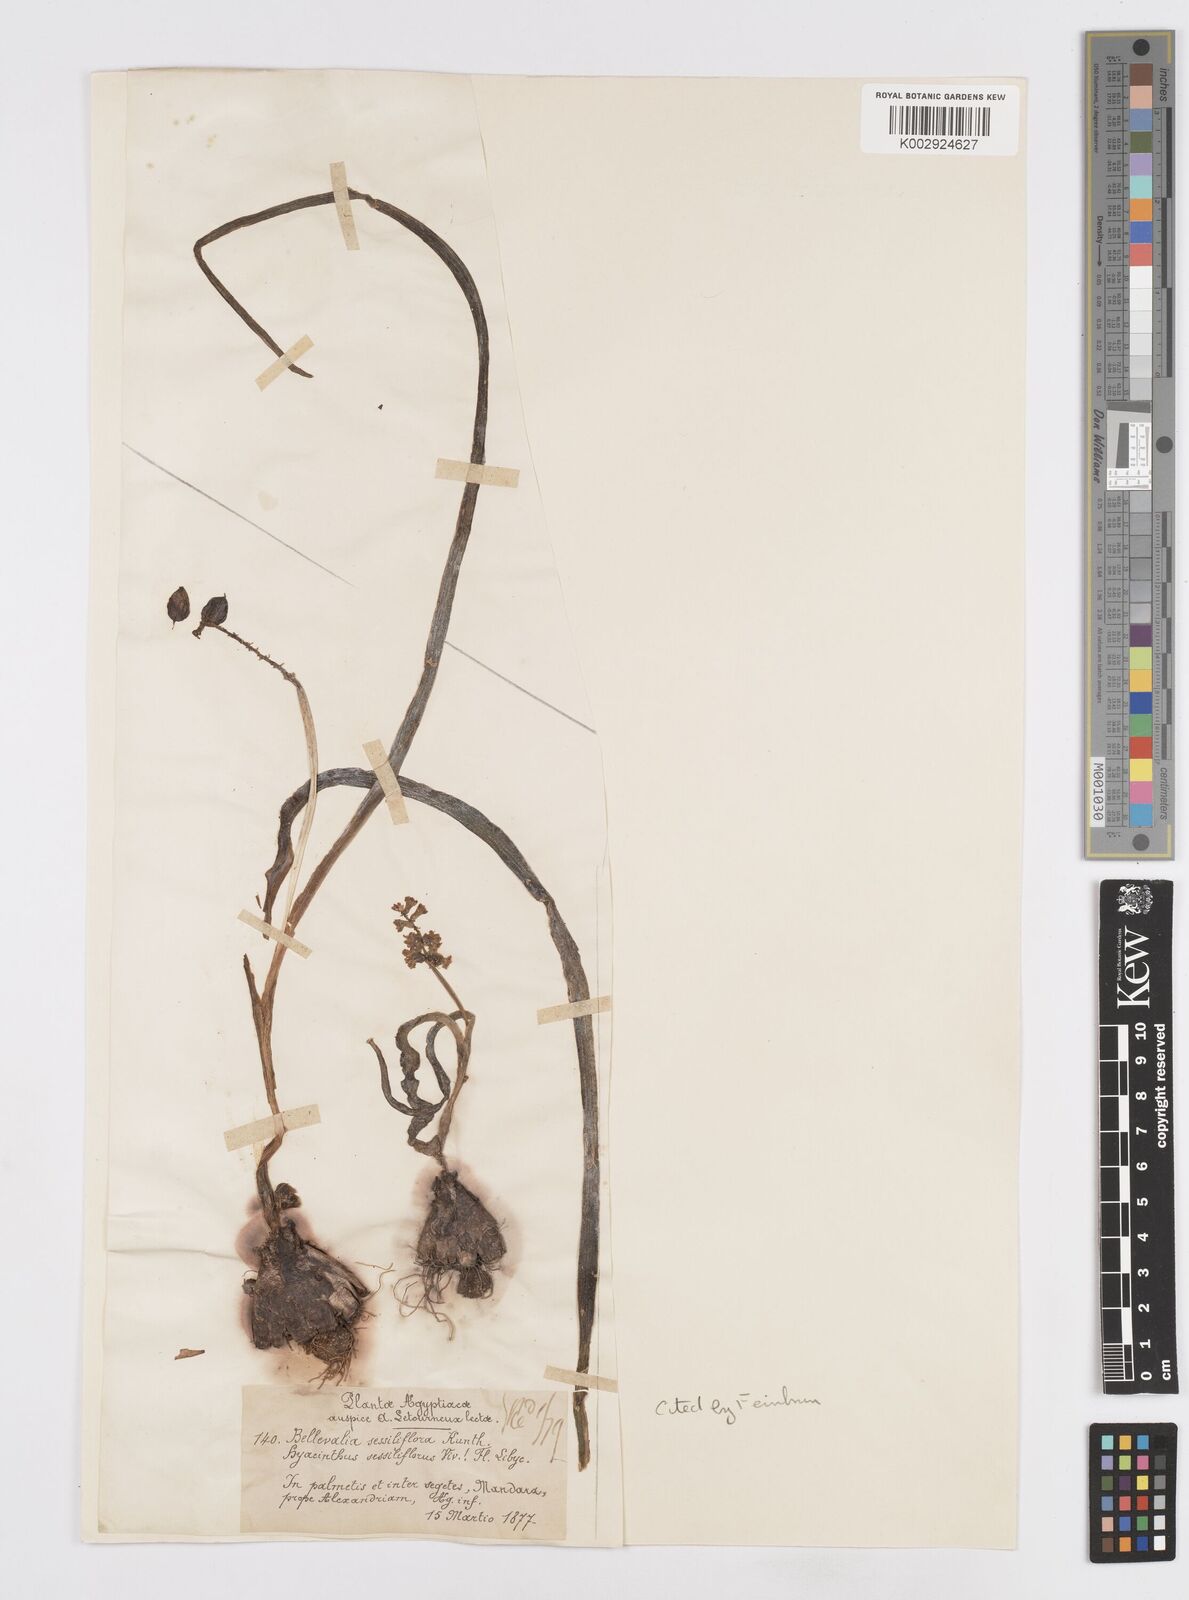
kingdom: Plantae
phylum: Tracheophyta
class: Liliopsida
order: Asparagales
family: Asparagaceae
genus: Bellevalia
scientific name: Bellevalia sessiliflora
